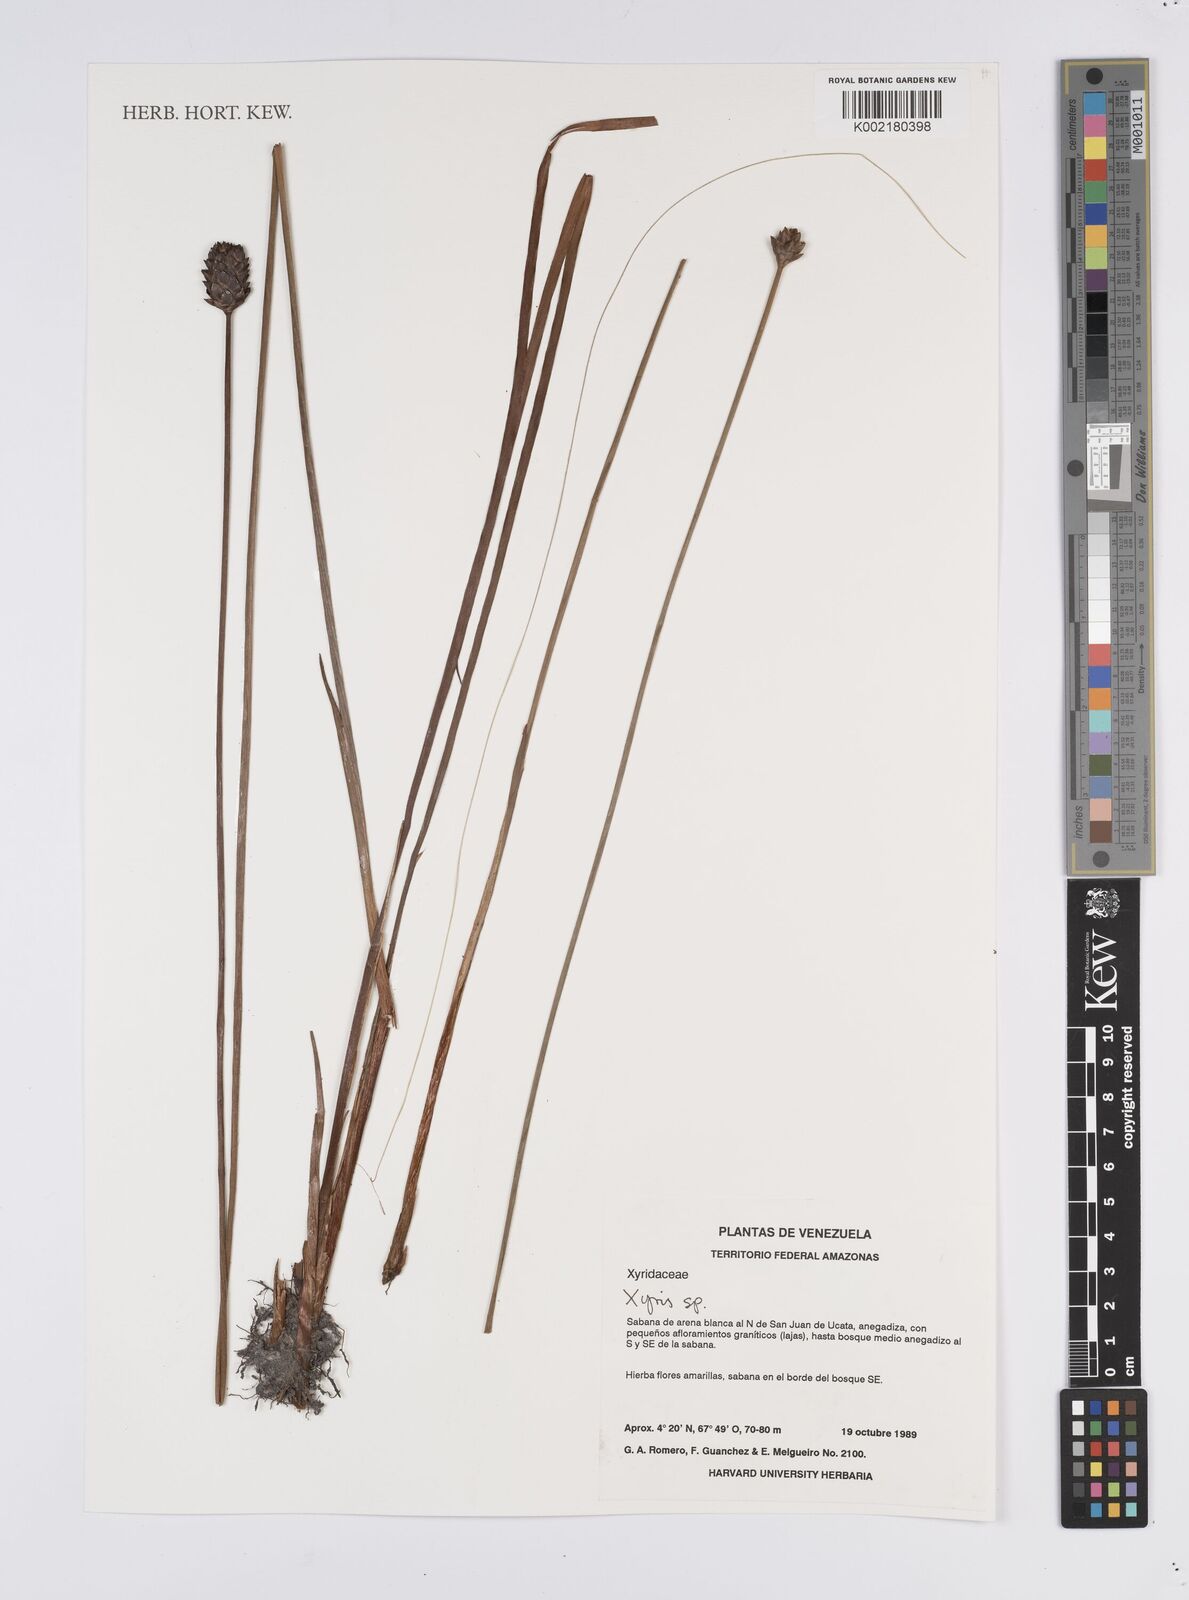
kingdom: Plantae
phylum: Tracheophyta
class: Liliopsida
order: Poales
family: Xyridaceae
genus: Xyris
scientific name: Xyris
